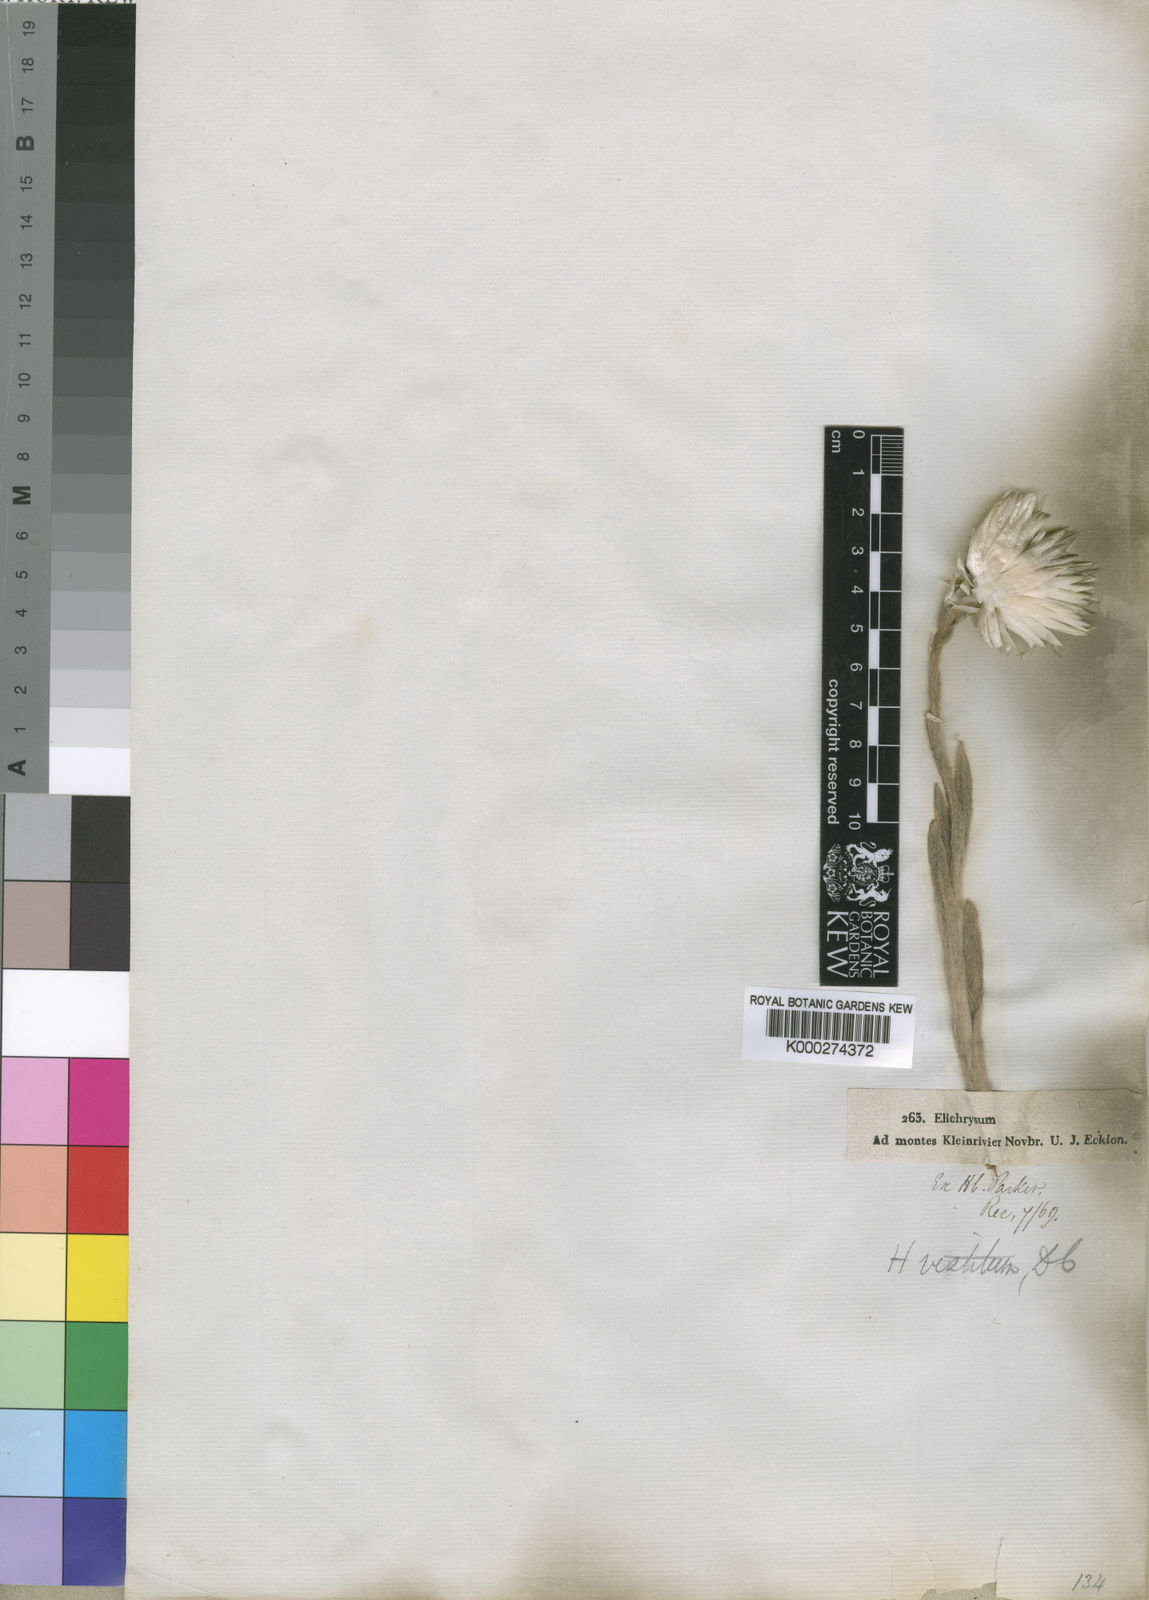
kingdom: Plantae
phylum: Tracheophyta
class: Magnoliopsida
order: Asterales
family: Asteraceae
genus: Syncarpha
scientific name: Syncarpha vestita
